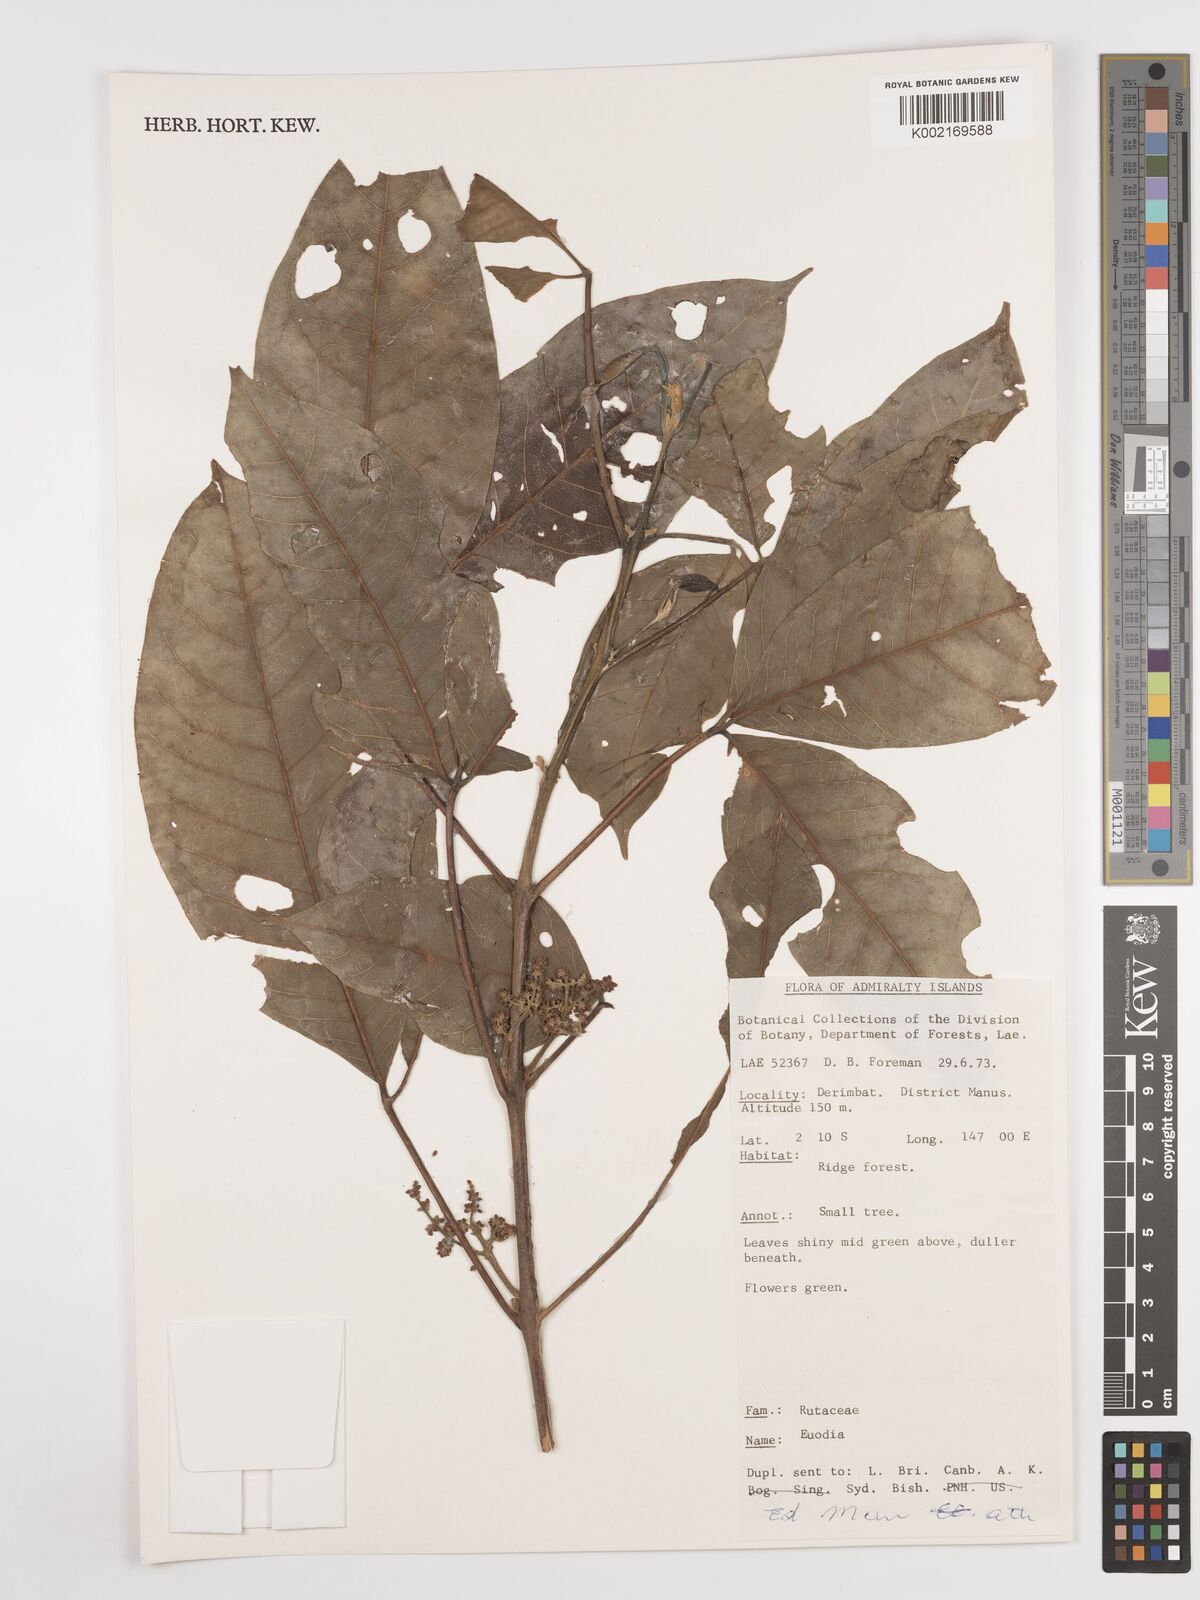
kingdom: Plantae
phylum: Tracheophyta
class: Magnoliopsida
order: Sapindales
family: Rutaceae
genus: Euodia
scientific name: Euodia
